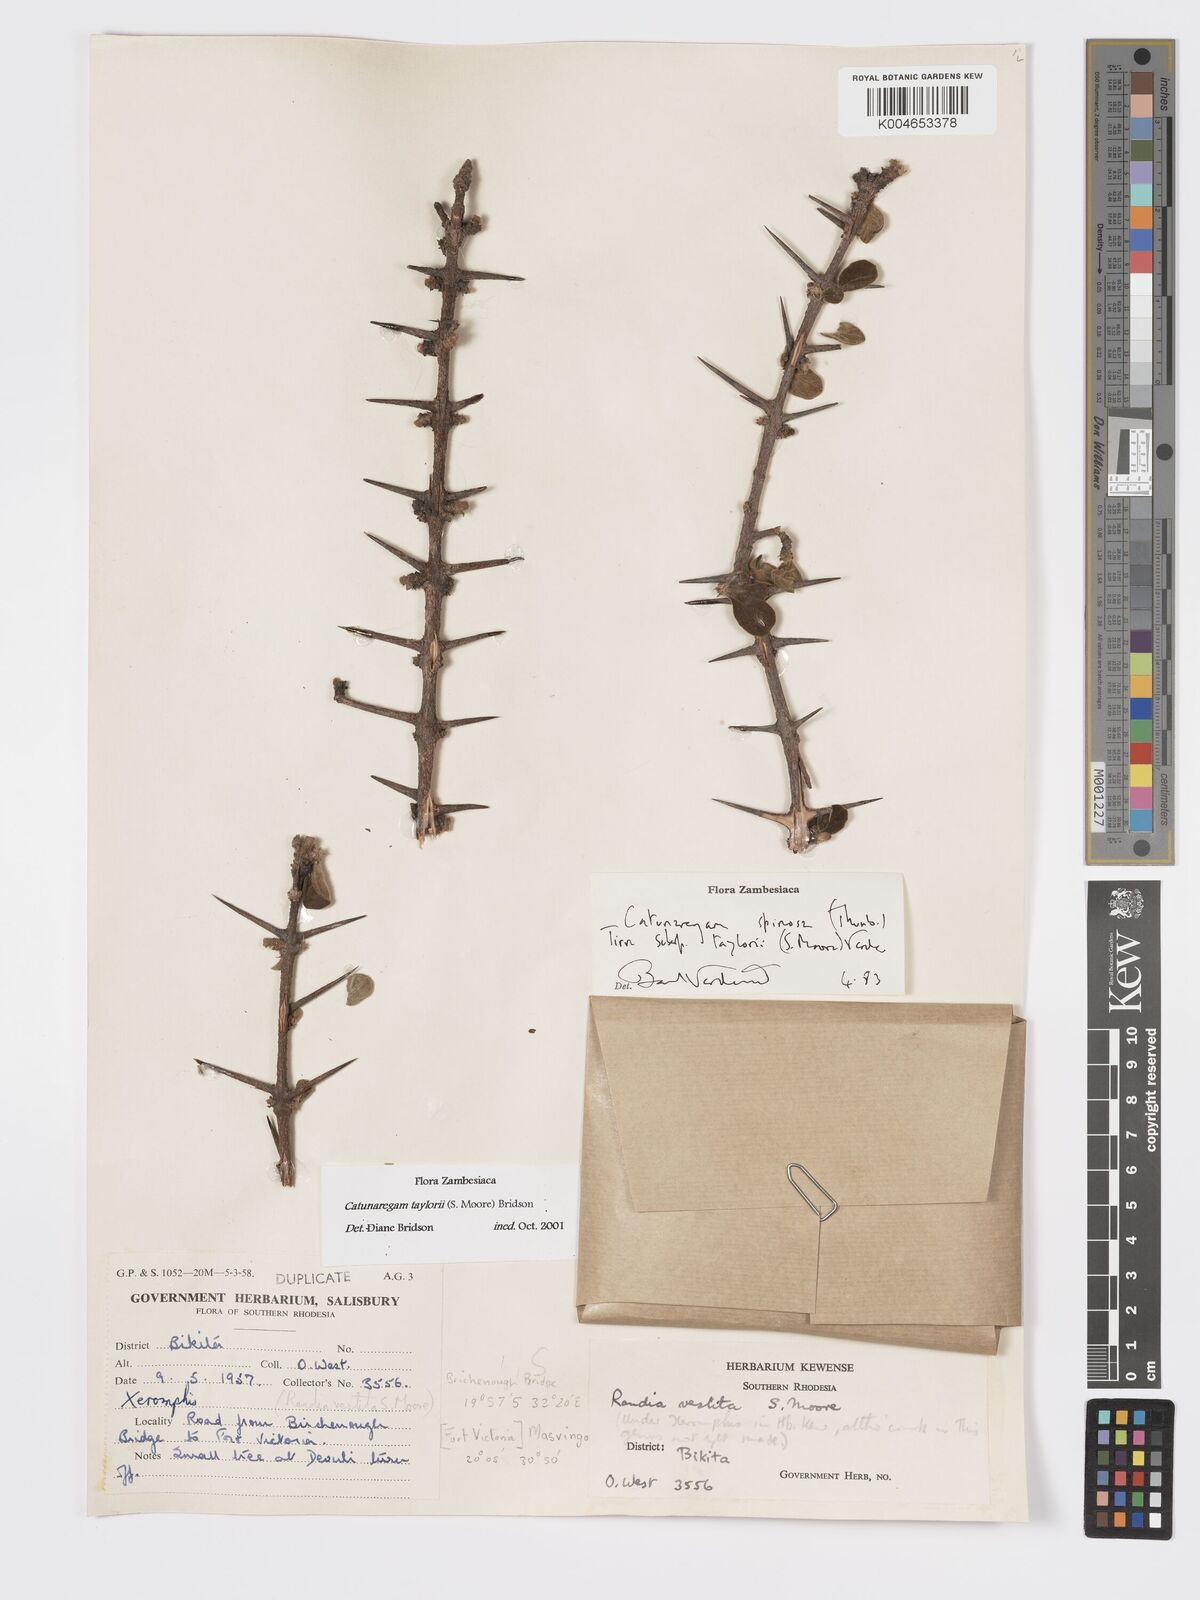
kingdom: Plantae
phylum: Tracheophyta
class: Magnoliopsida
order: Gentianales
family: Rubiaceae
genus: Catunaregam
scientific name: Catunaregam
